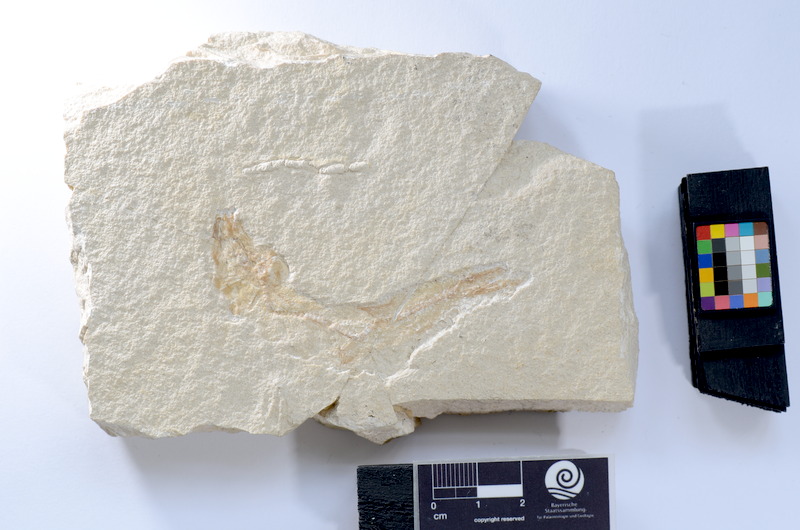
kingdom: Animalia
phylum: Chordata
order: Salmoniformes
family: Orthogonikleithridae
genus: Leptolepides
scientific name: Leptolepides
